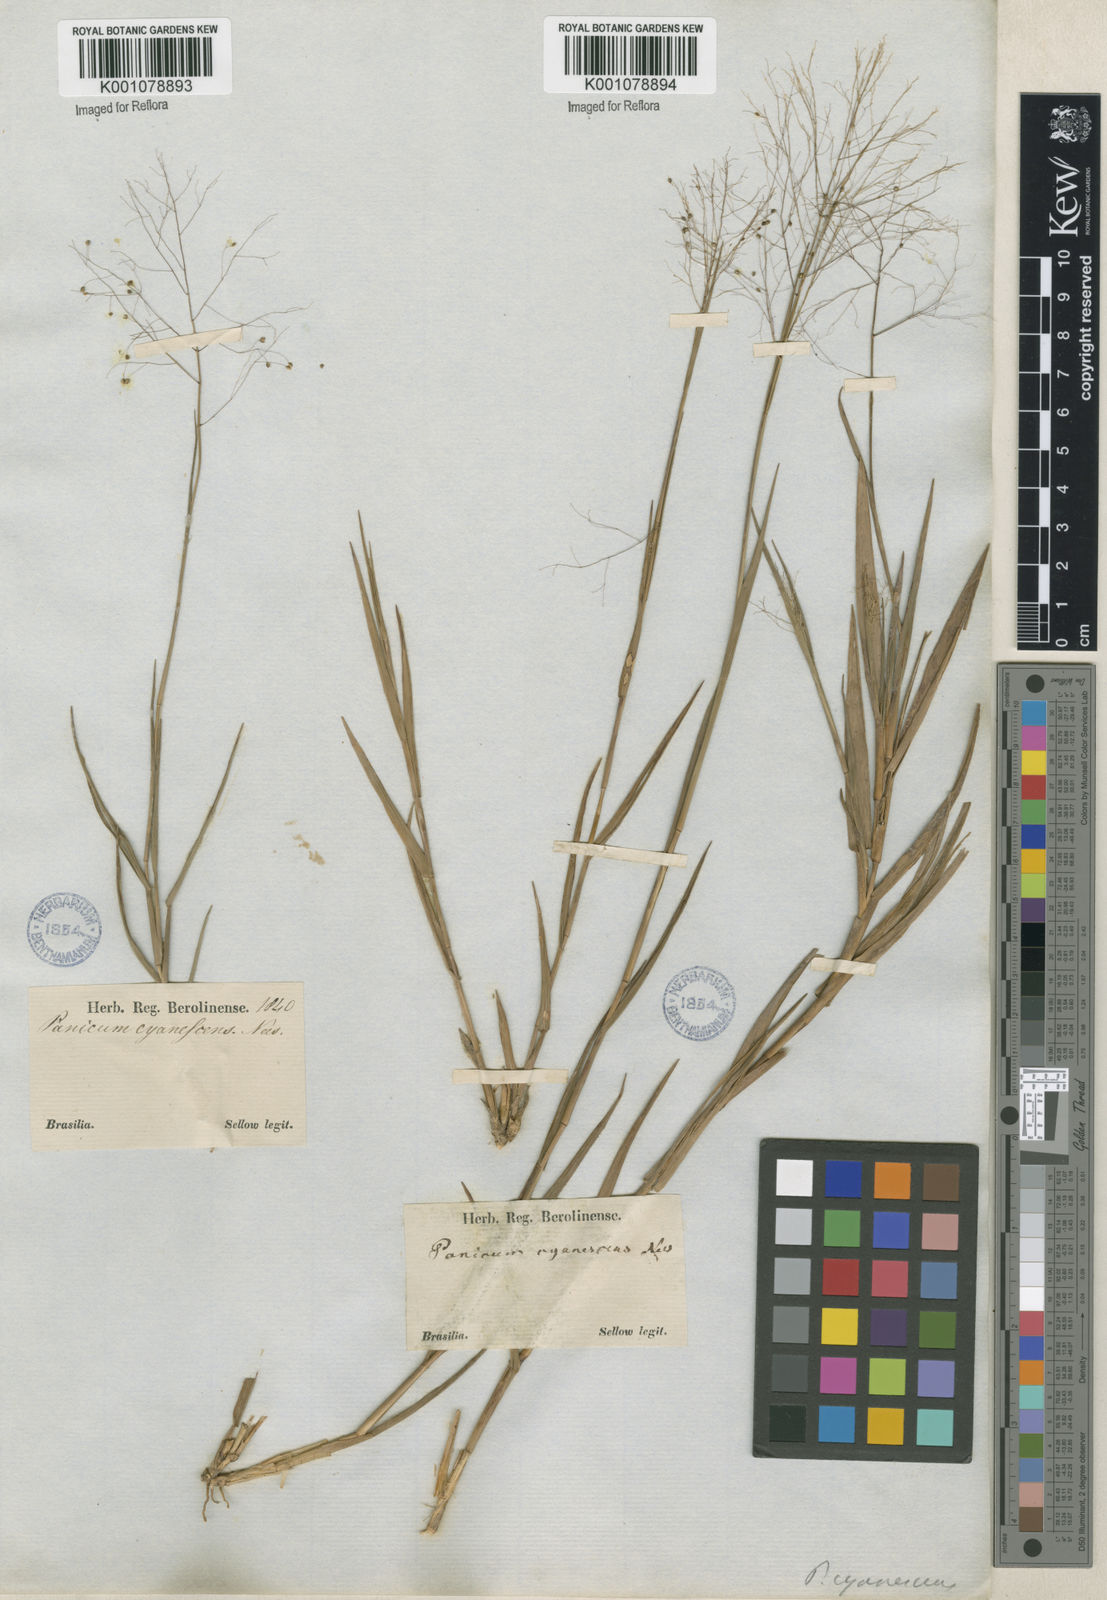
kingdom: Plantae
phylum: Tracheophyta
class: Liliopsida
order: Poales
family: Poaceae
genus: Trichanthecium
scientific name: Trichanthecium cyanescens
